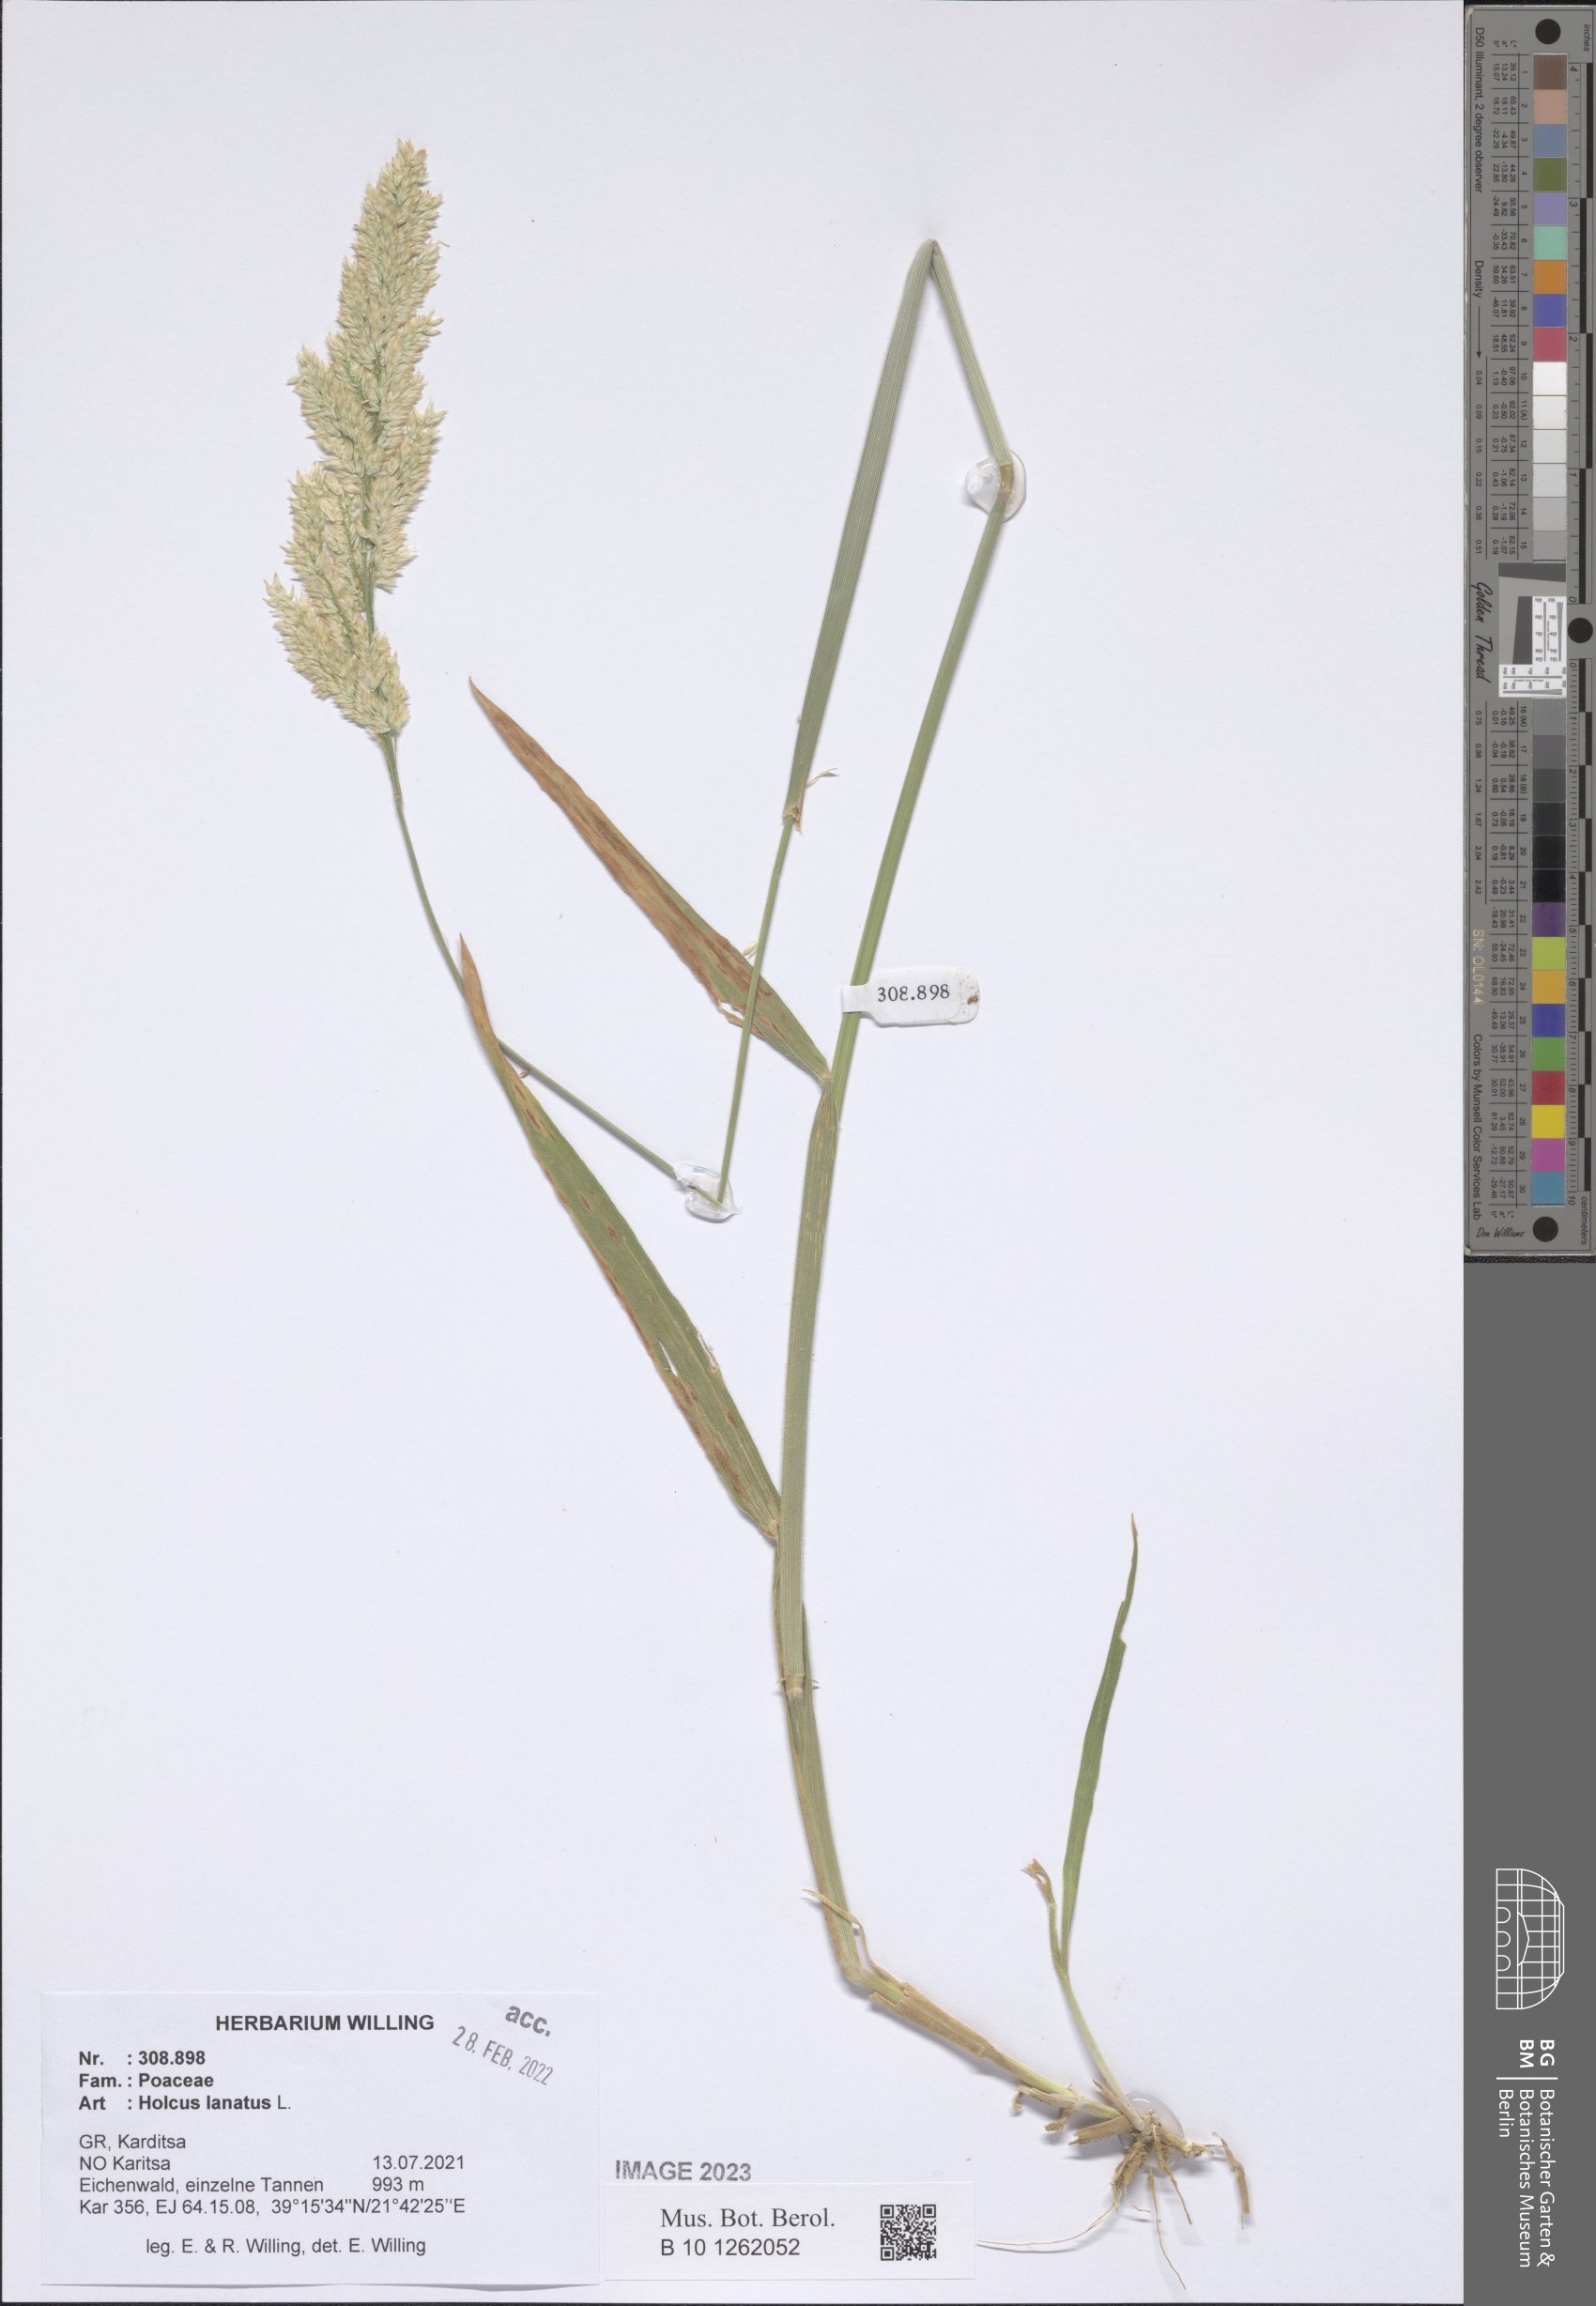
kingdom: Plantae
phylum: Tracheophyta
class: Liliopsida
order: Poales
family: Poaceae
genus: Holcus
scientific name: Holcus lanatus
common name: Yorkshire-fog
